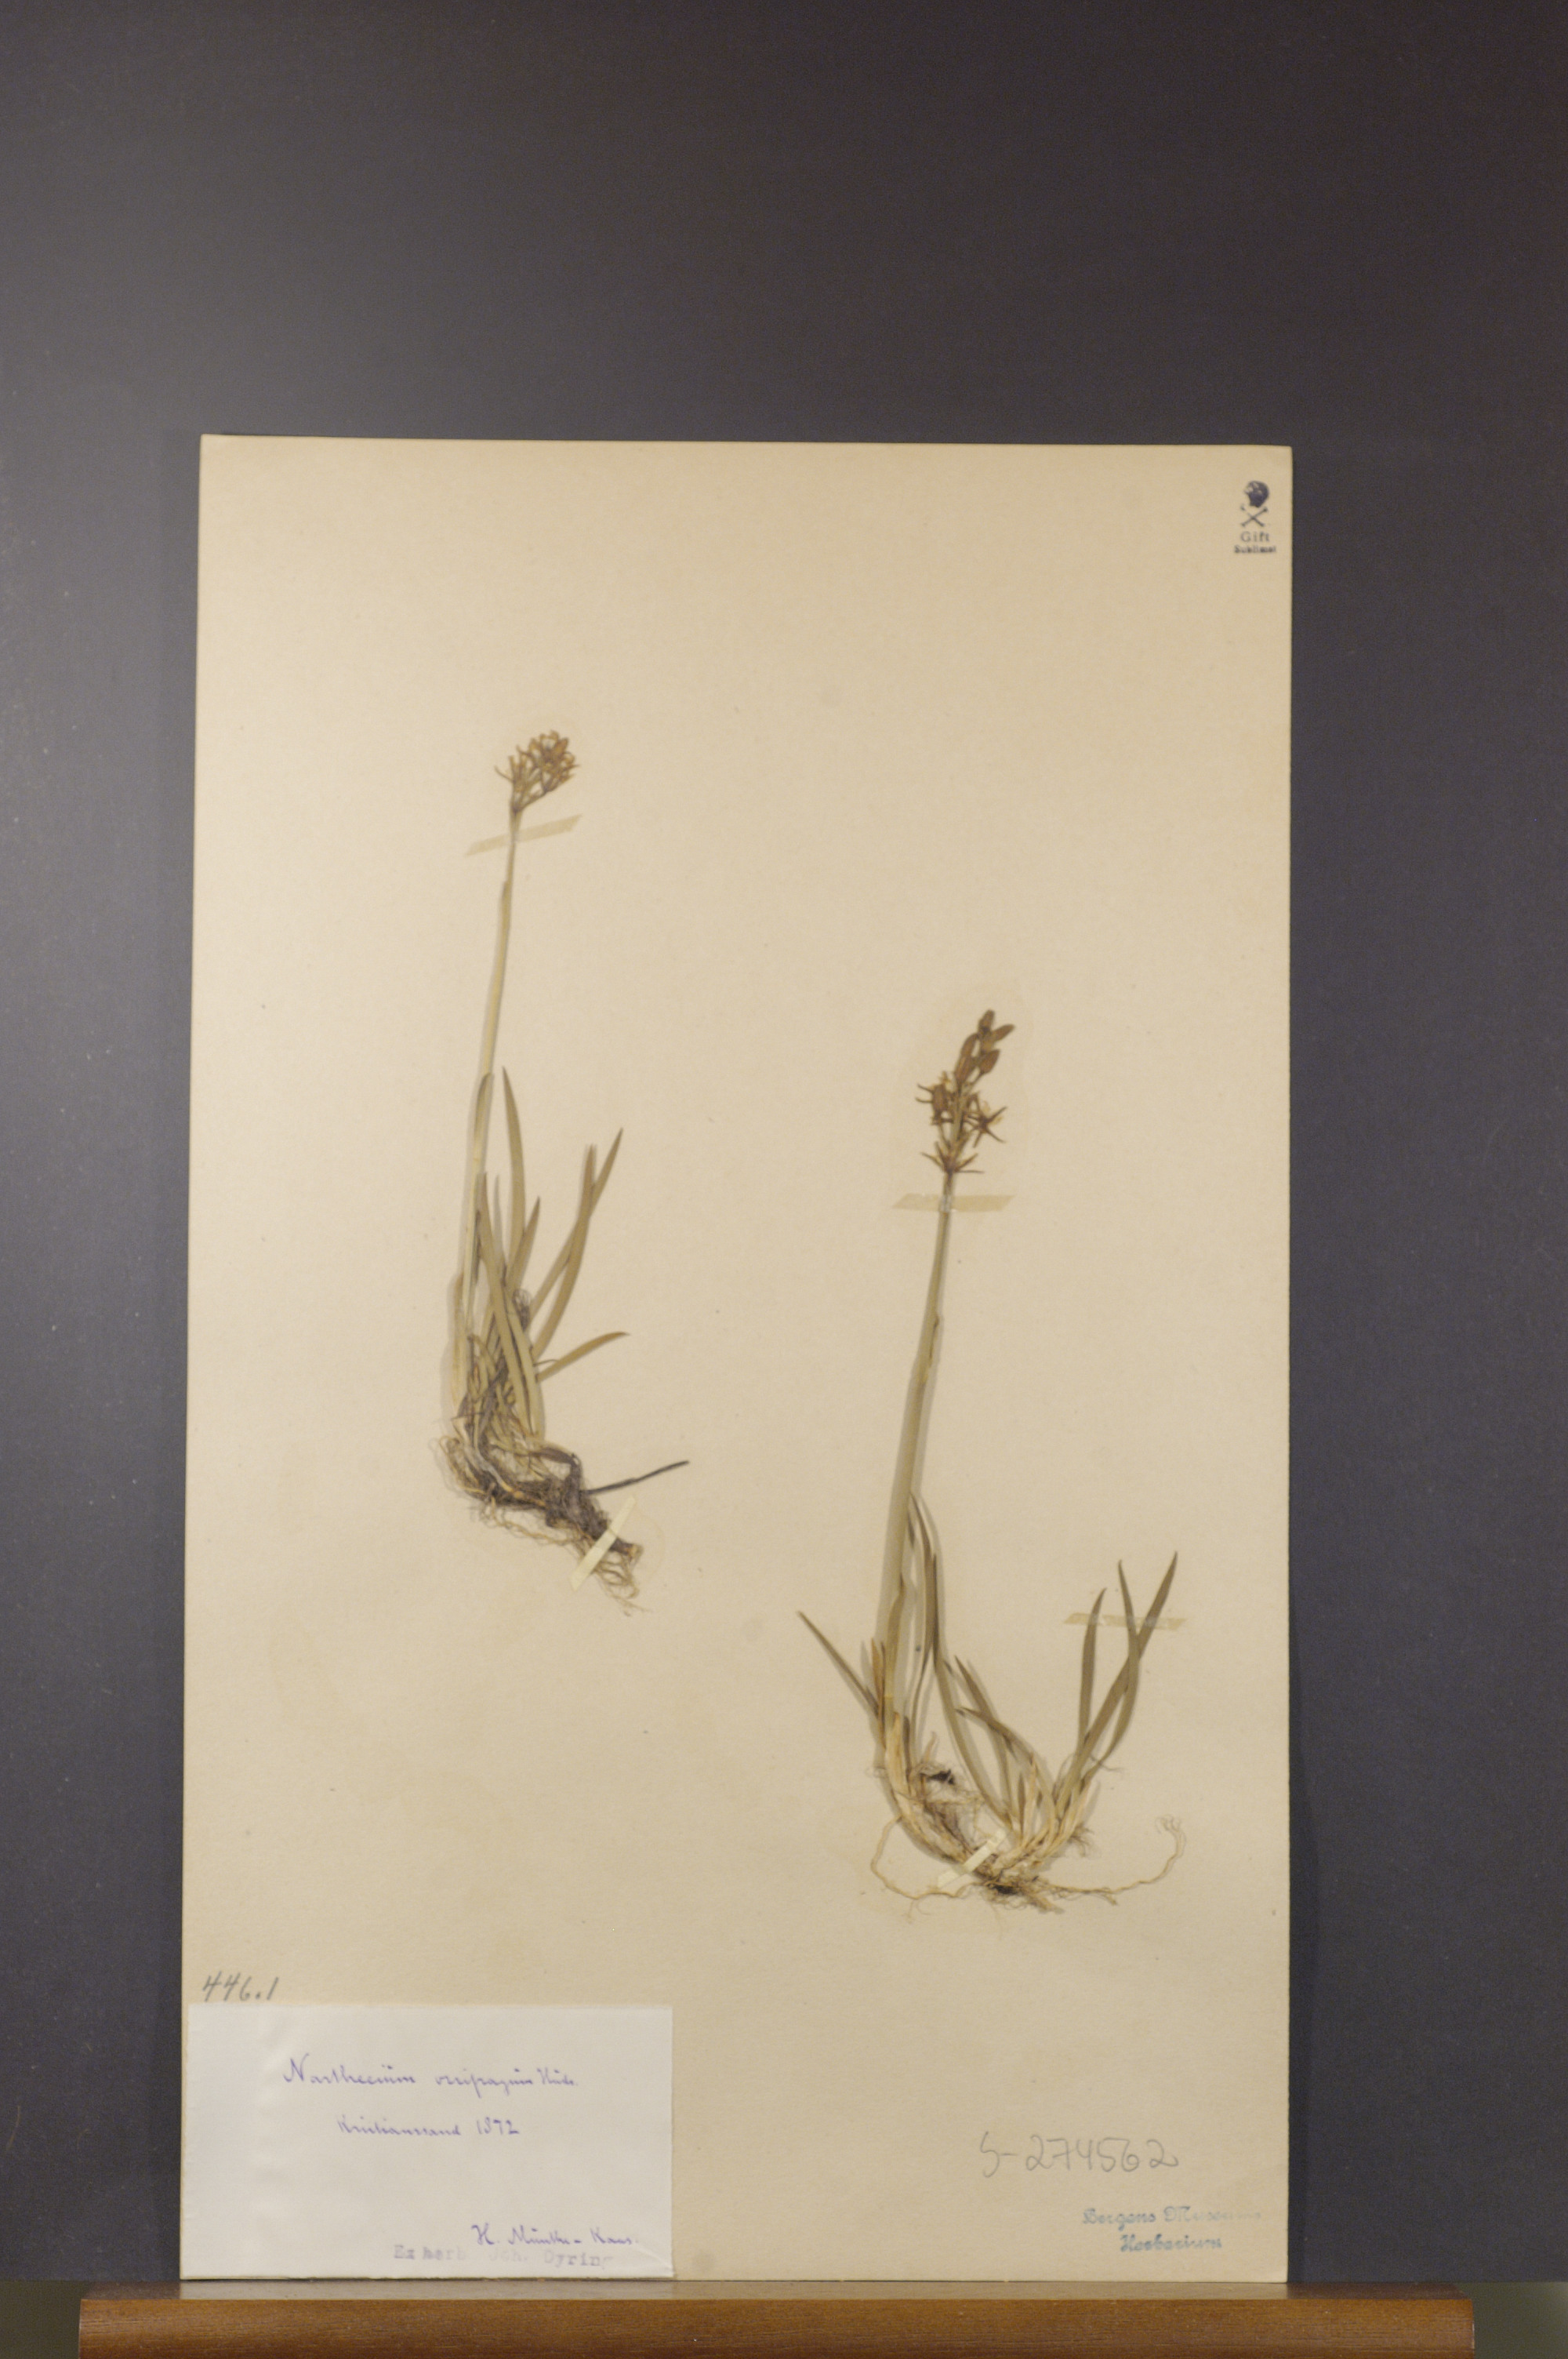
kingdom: Plantae
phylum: Tracheophyta
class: Liliopsida
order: Dioscoreales
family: Nartheciaceae
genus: Narthecium
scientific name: Narthecium ossifragum
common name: Bog asphodel
